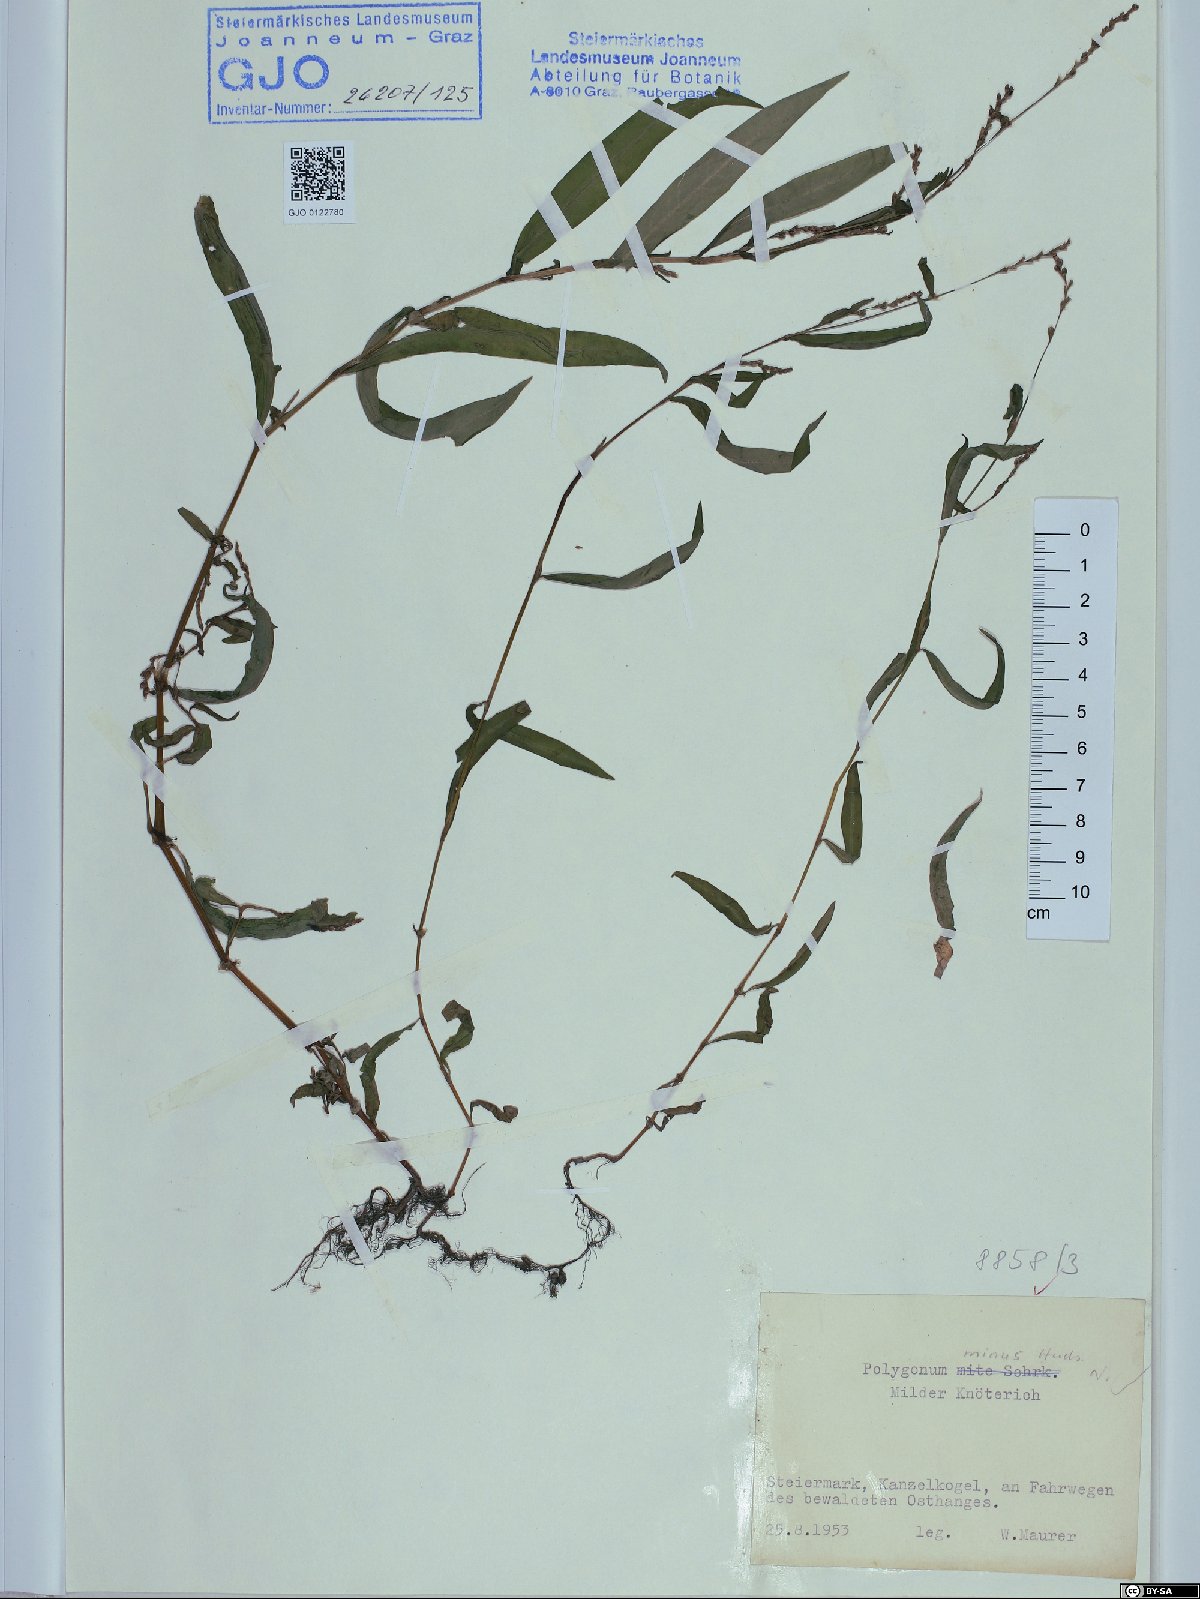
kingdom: Plantae
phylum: Tracheophyta
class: Magnoliopsida
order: Caryophyllales
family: Polygonaceae
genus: Persicaria
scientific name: Persicaria minor
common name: Small water-pepper
